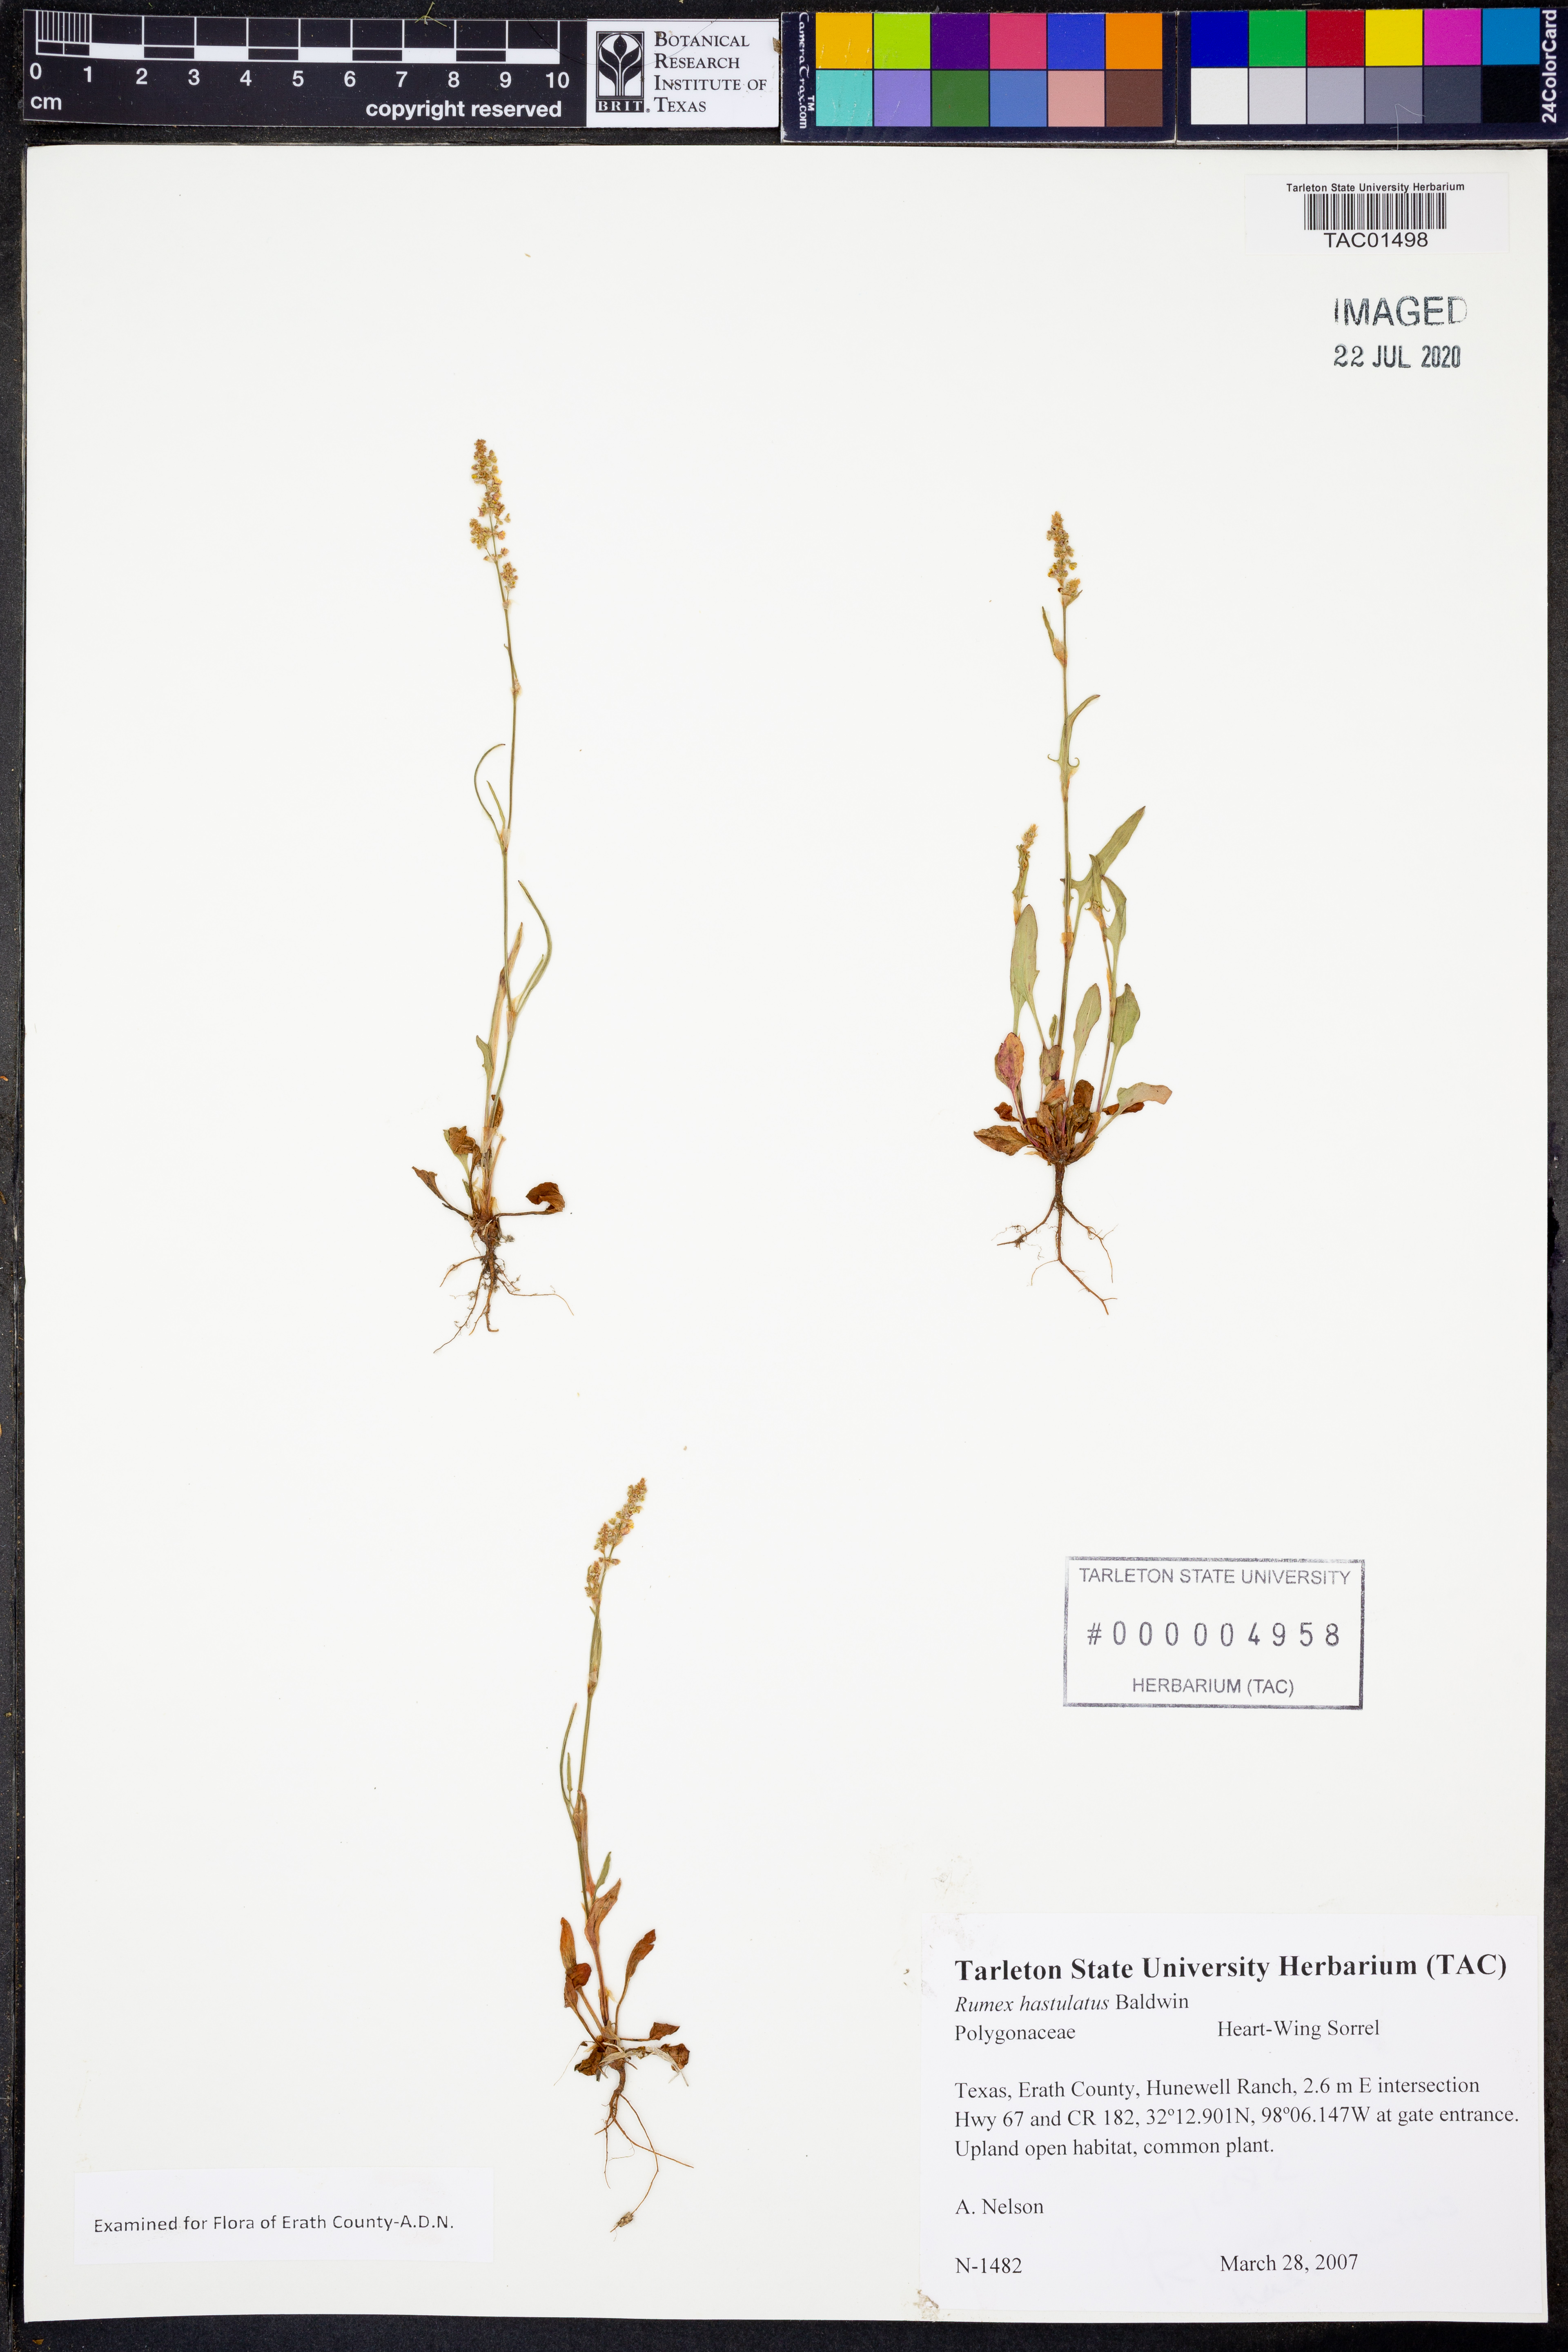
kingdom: Plantae
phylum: Tracheophyta
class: Magnoliopsida
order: Caryophyllales
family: Polygonaceae
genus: Rumex
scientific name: Rumex hastatulus
